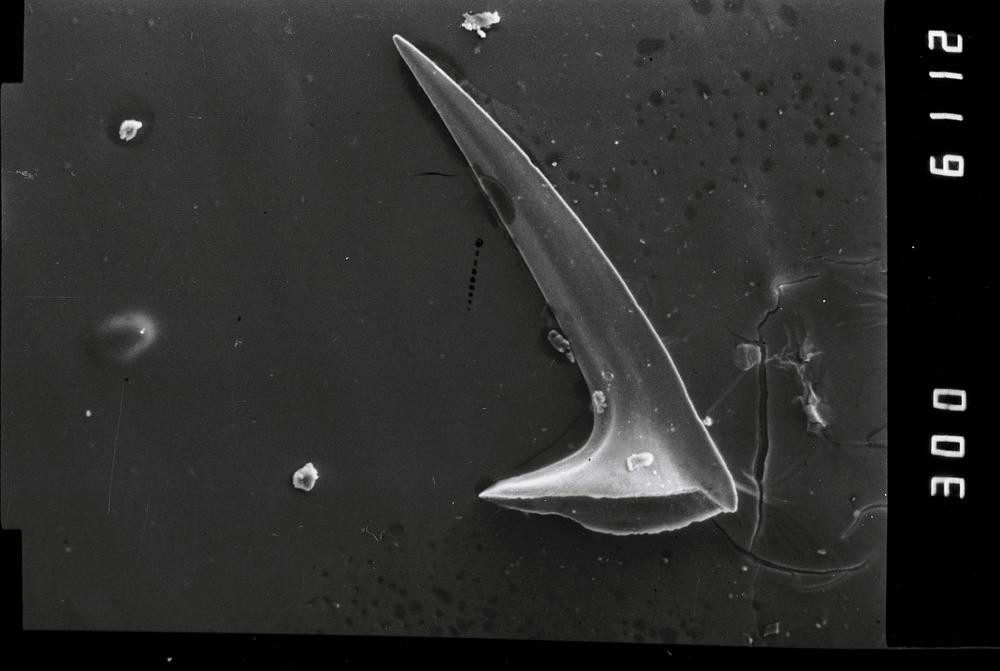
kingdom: Animalia
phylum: Annelida
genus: Paltodus
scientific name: Paltodus
